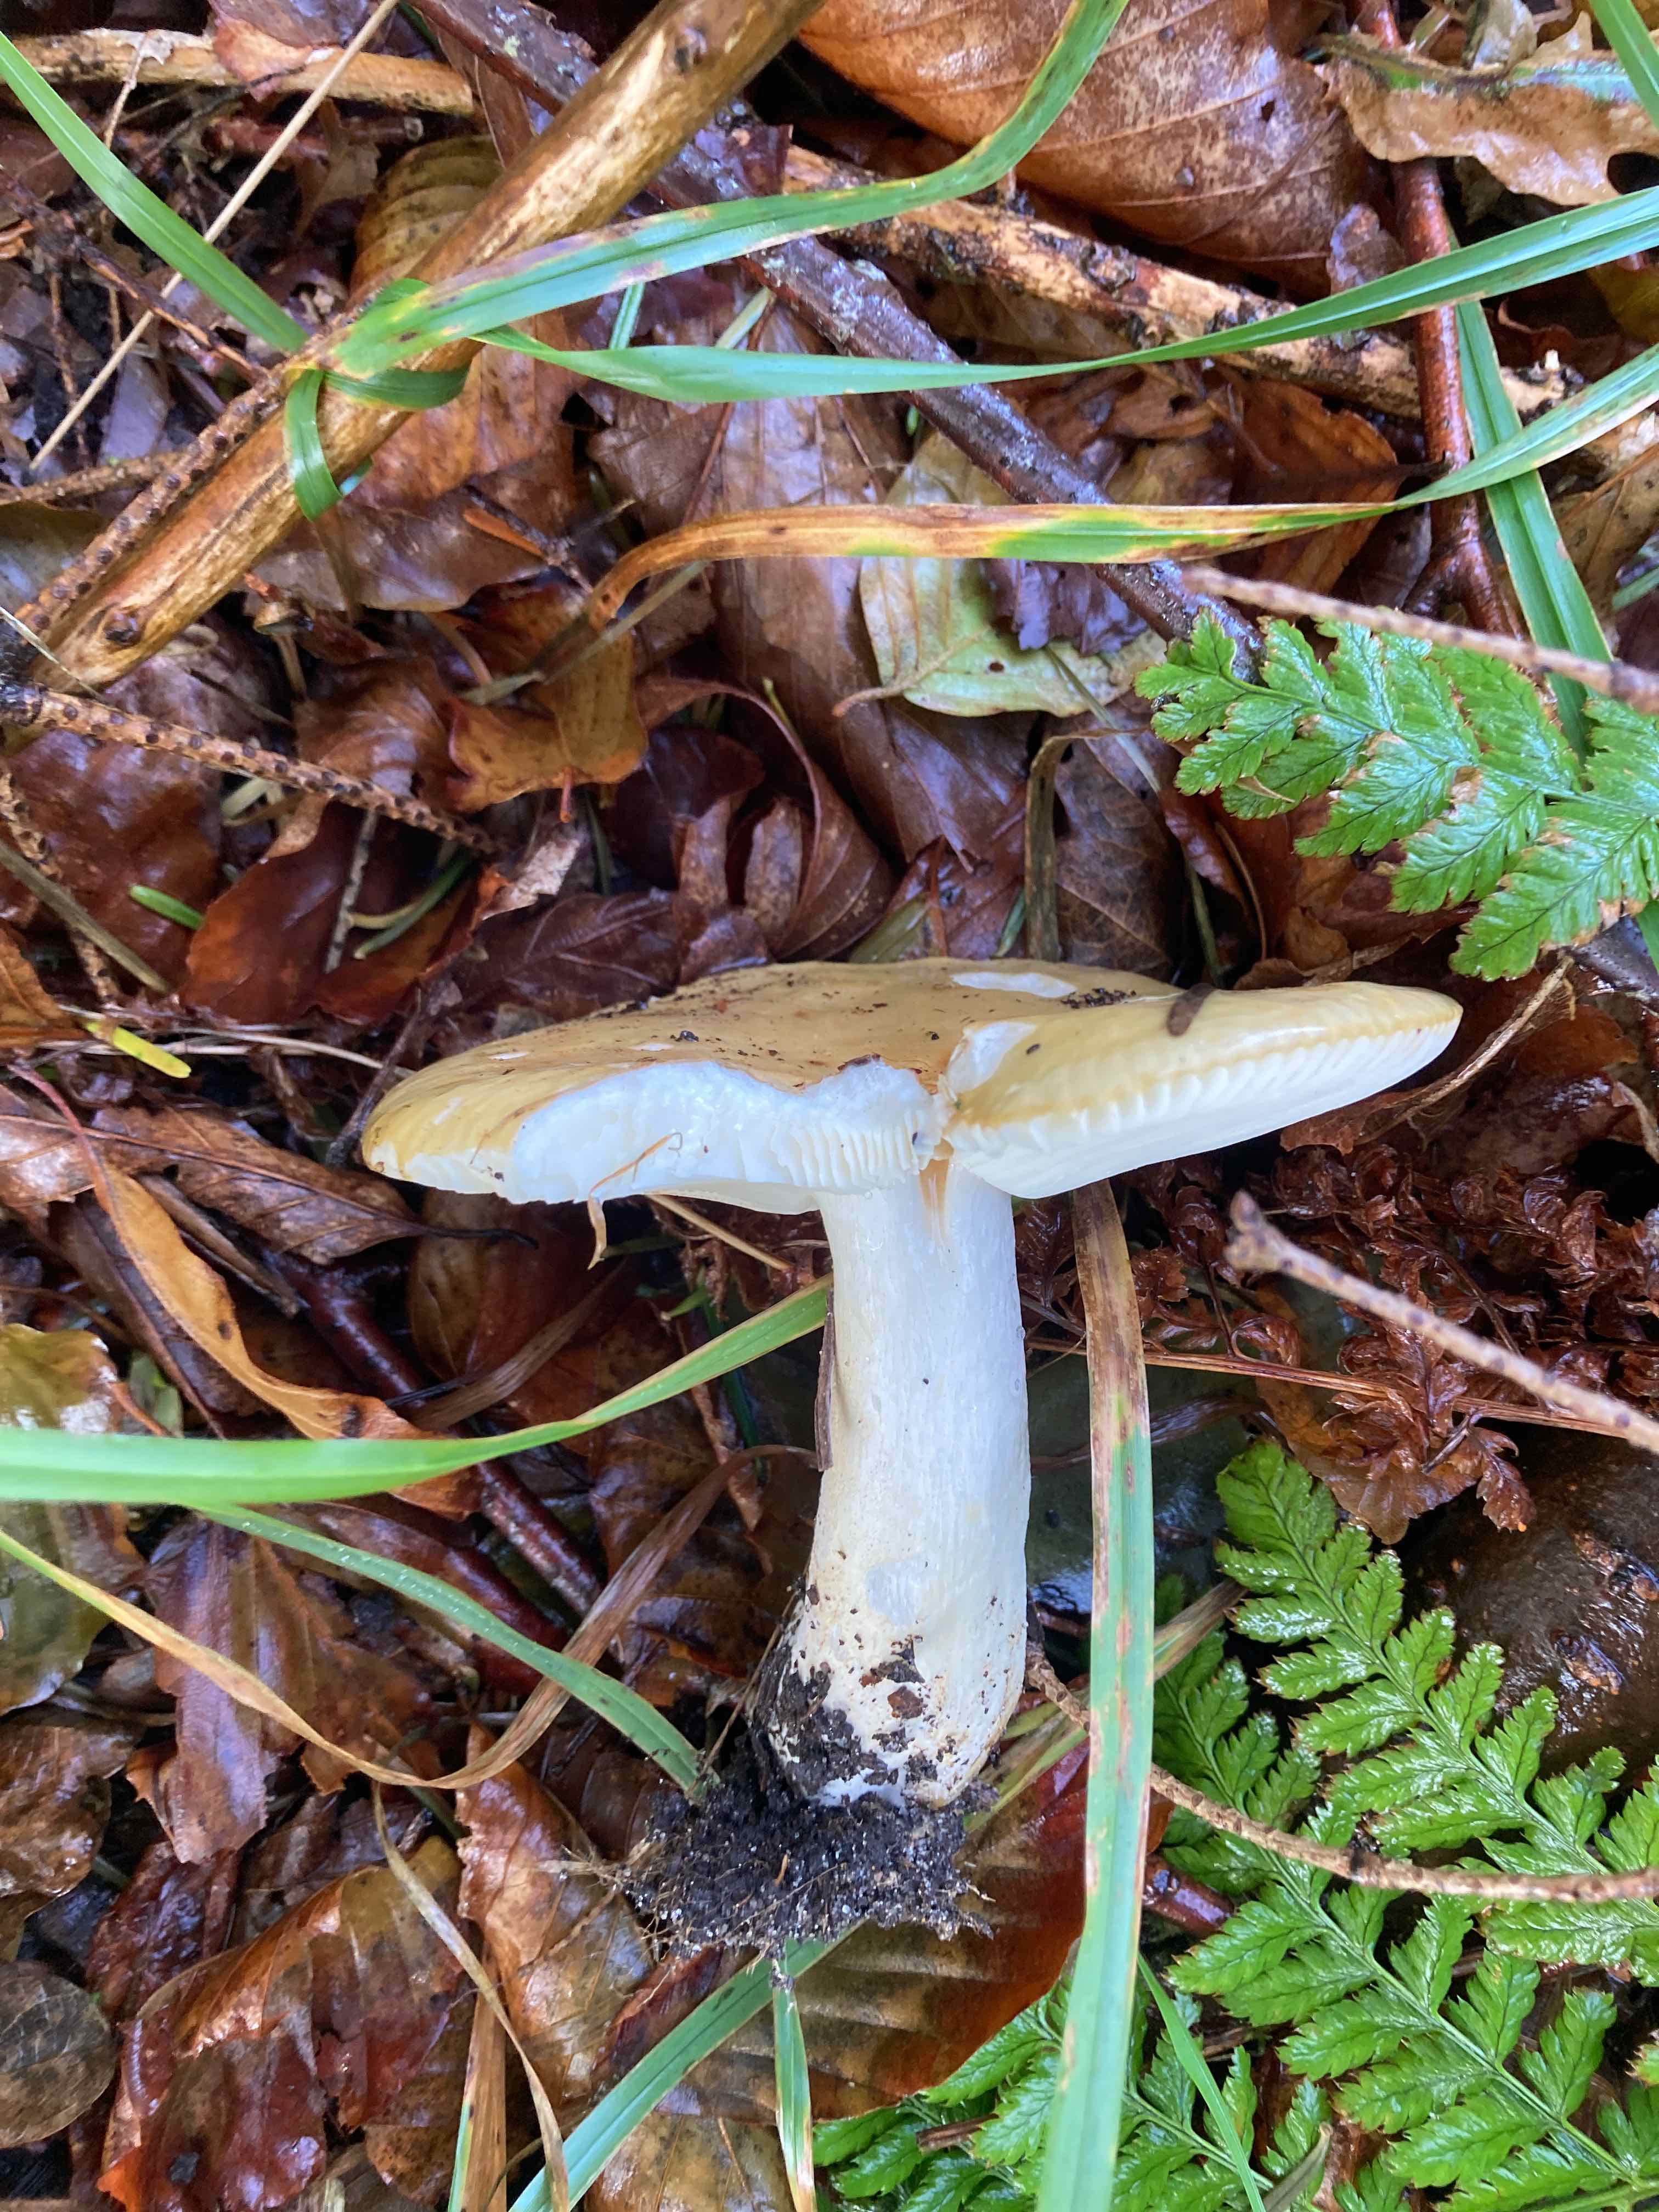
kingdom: Fungi
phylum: Basidiomycota
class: Agaricomycetes
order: Russulales
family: Russulaceae
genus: Russula
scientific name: Russula ochroleuca
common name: okkergul skørhat
